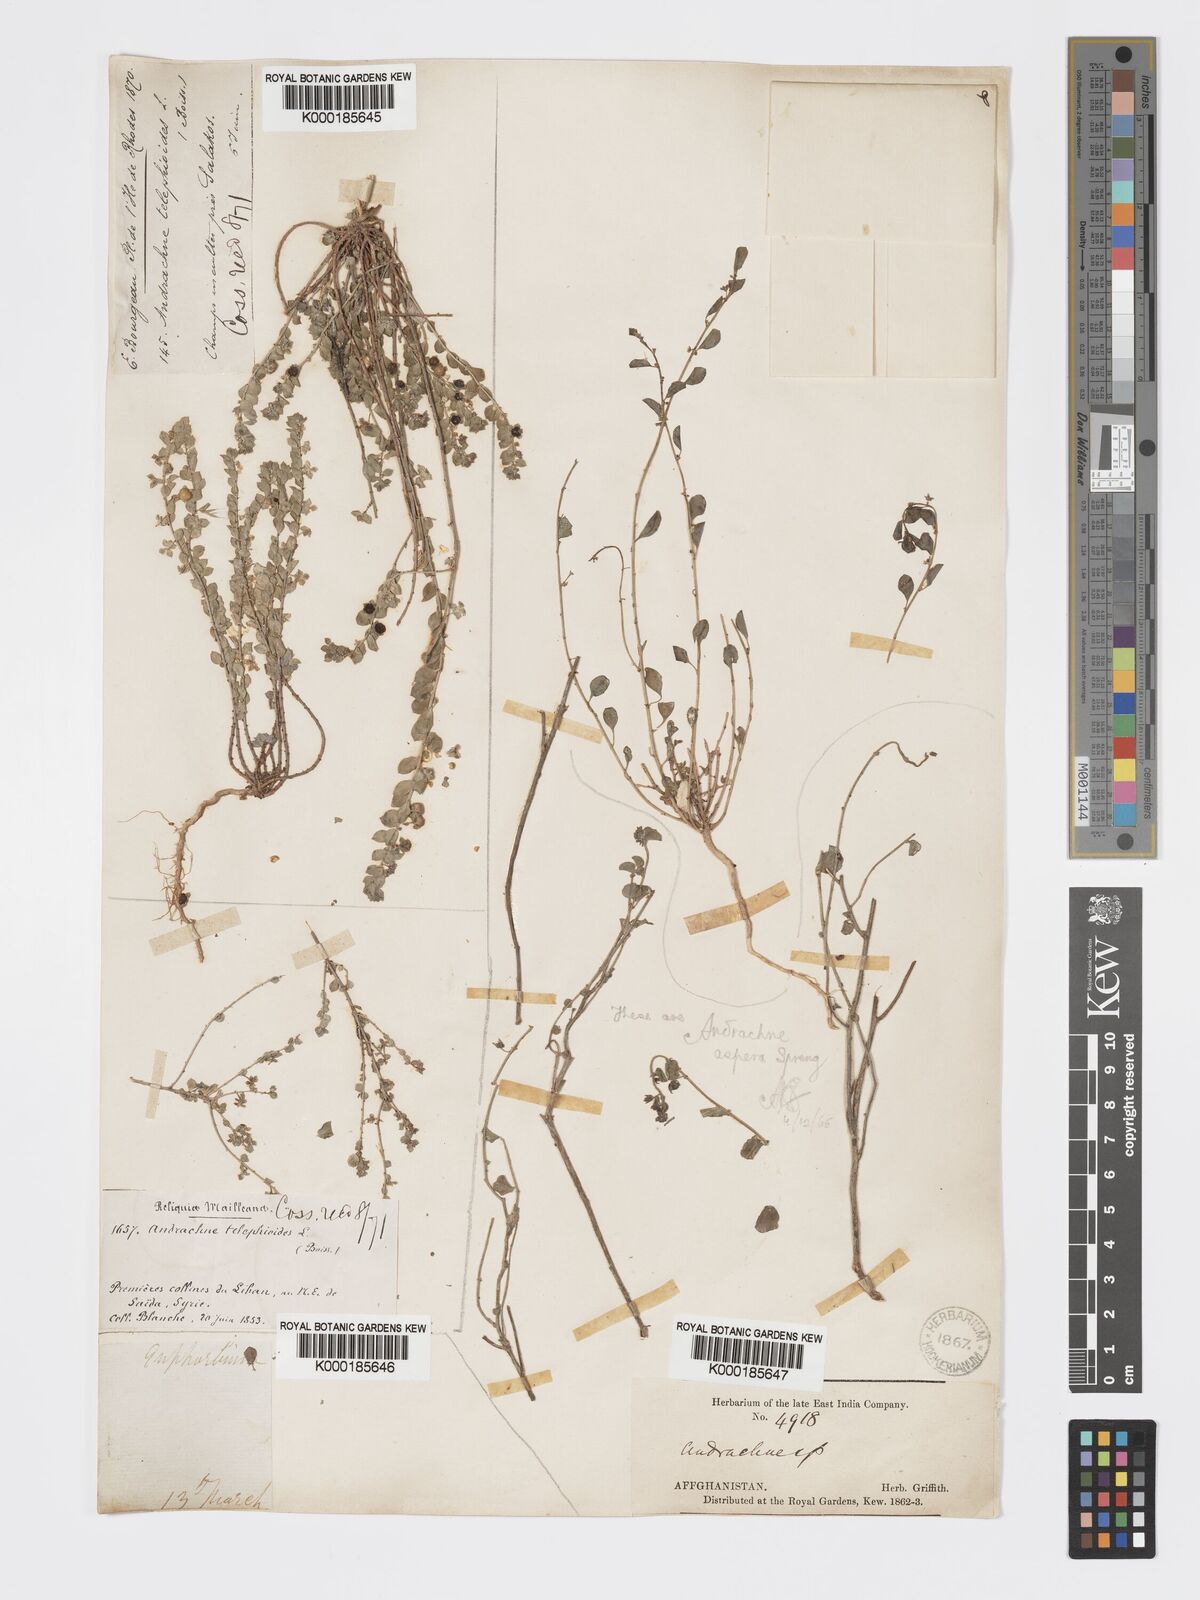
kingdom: Plantae
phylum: Tracheophyta
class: Magnoliopsida
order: Malpighiales
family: Phyllanthaceae
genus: Andrachne
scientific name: Andrachne telephioides
